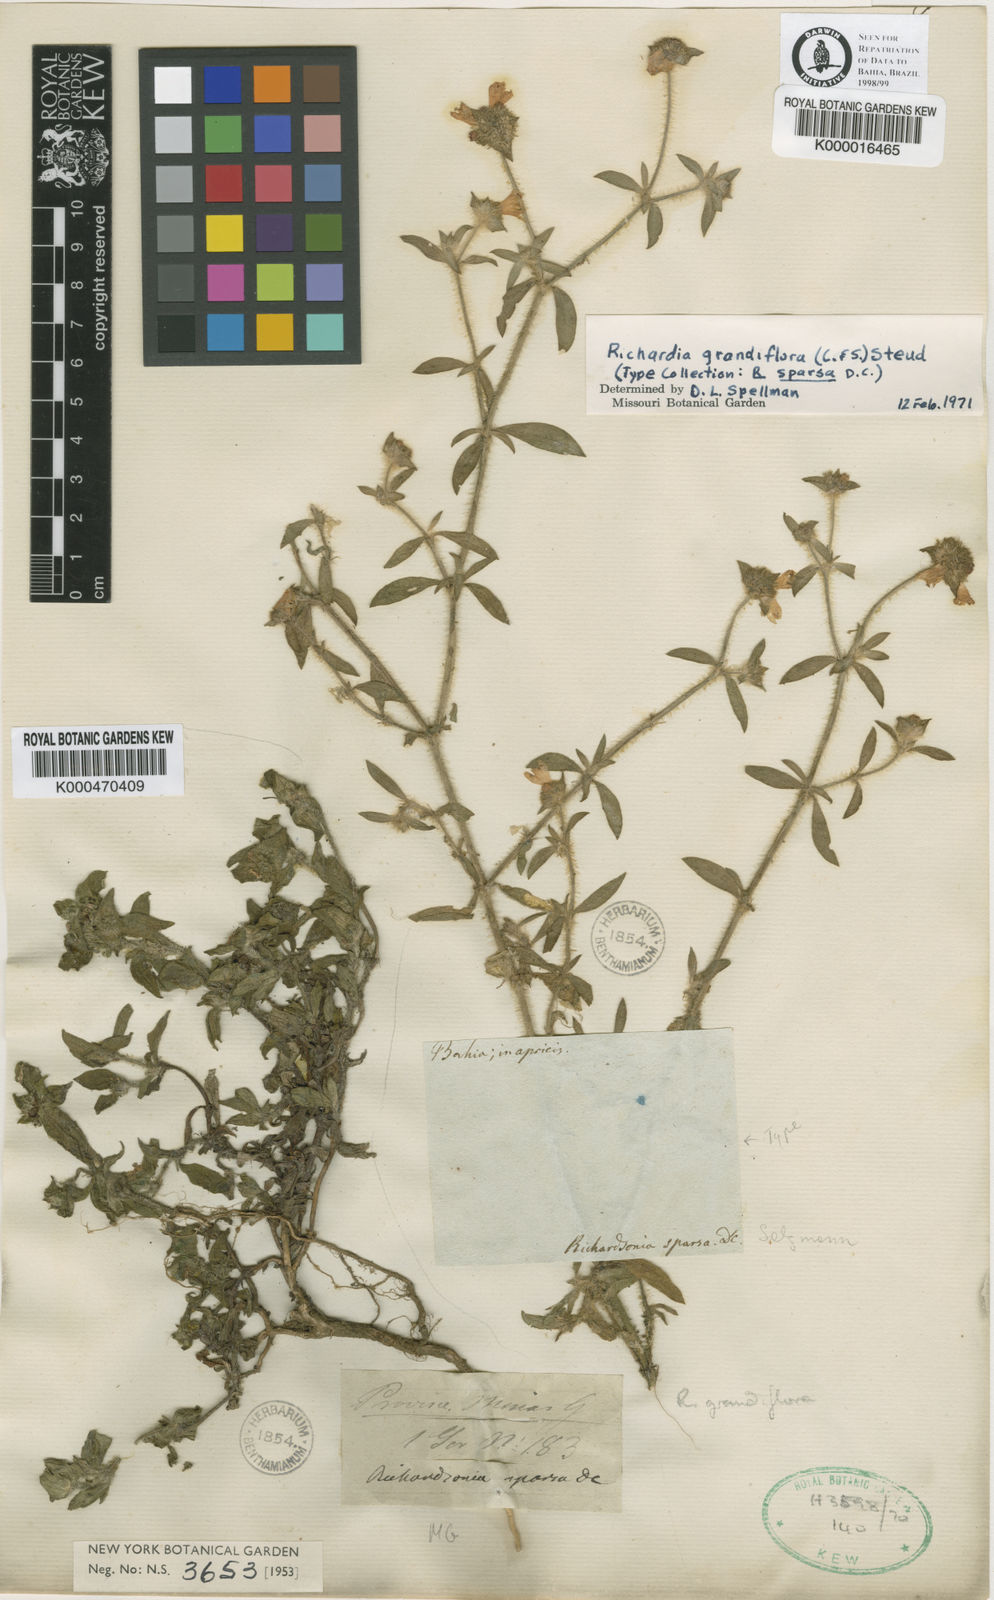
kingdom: Plantae
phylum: Tracheophyta
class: Magnoliopsida
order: Gentianales
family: Rubiaceae
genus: Richardia
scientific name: Richardia grandiflora
